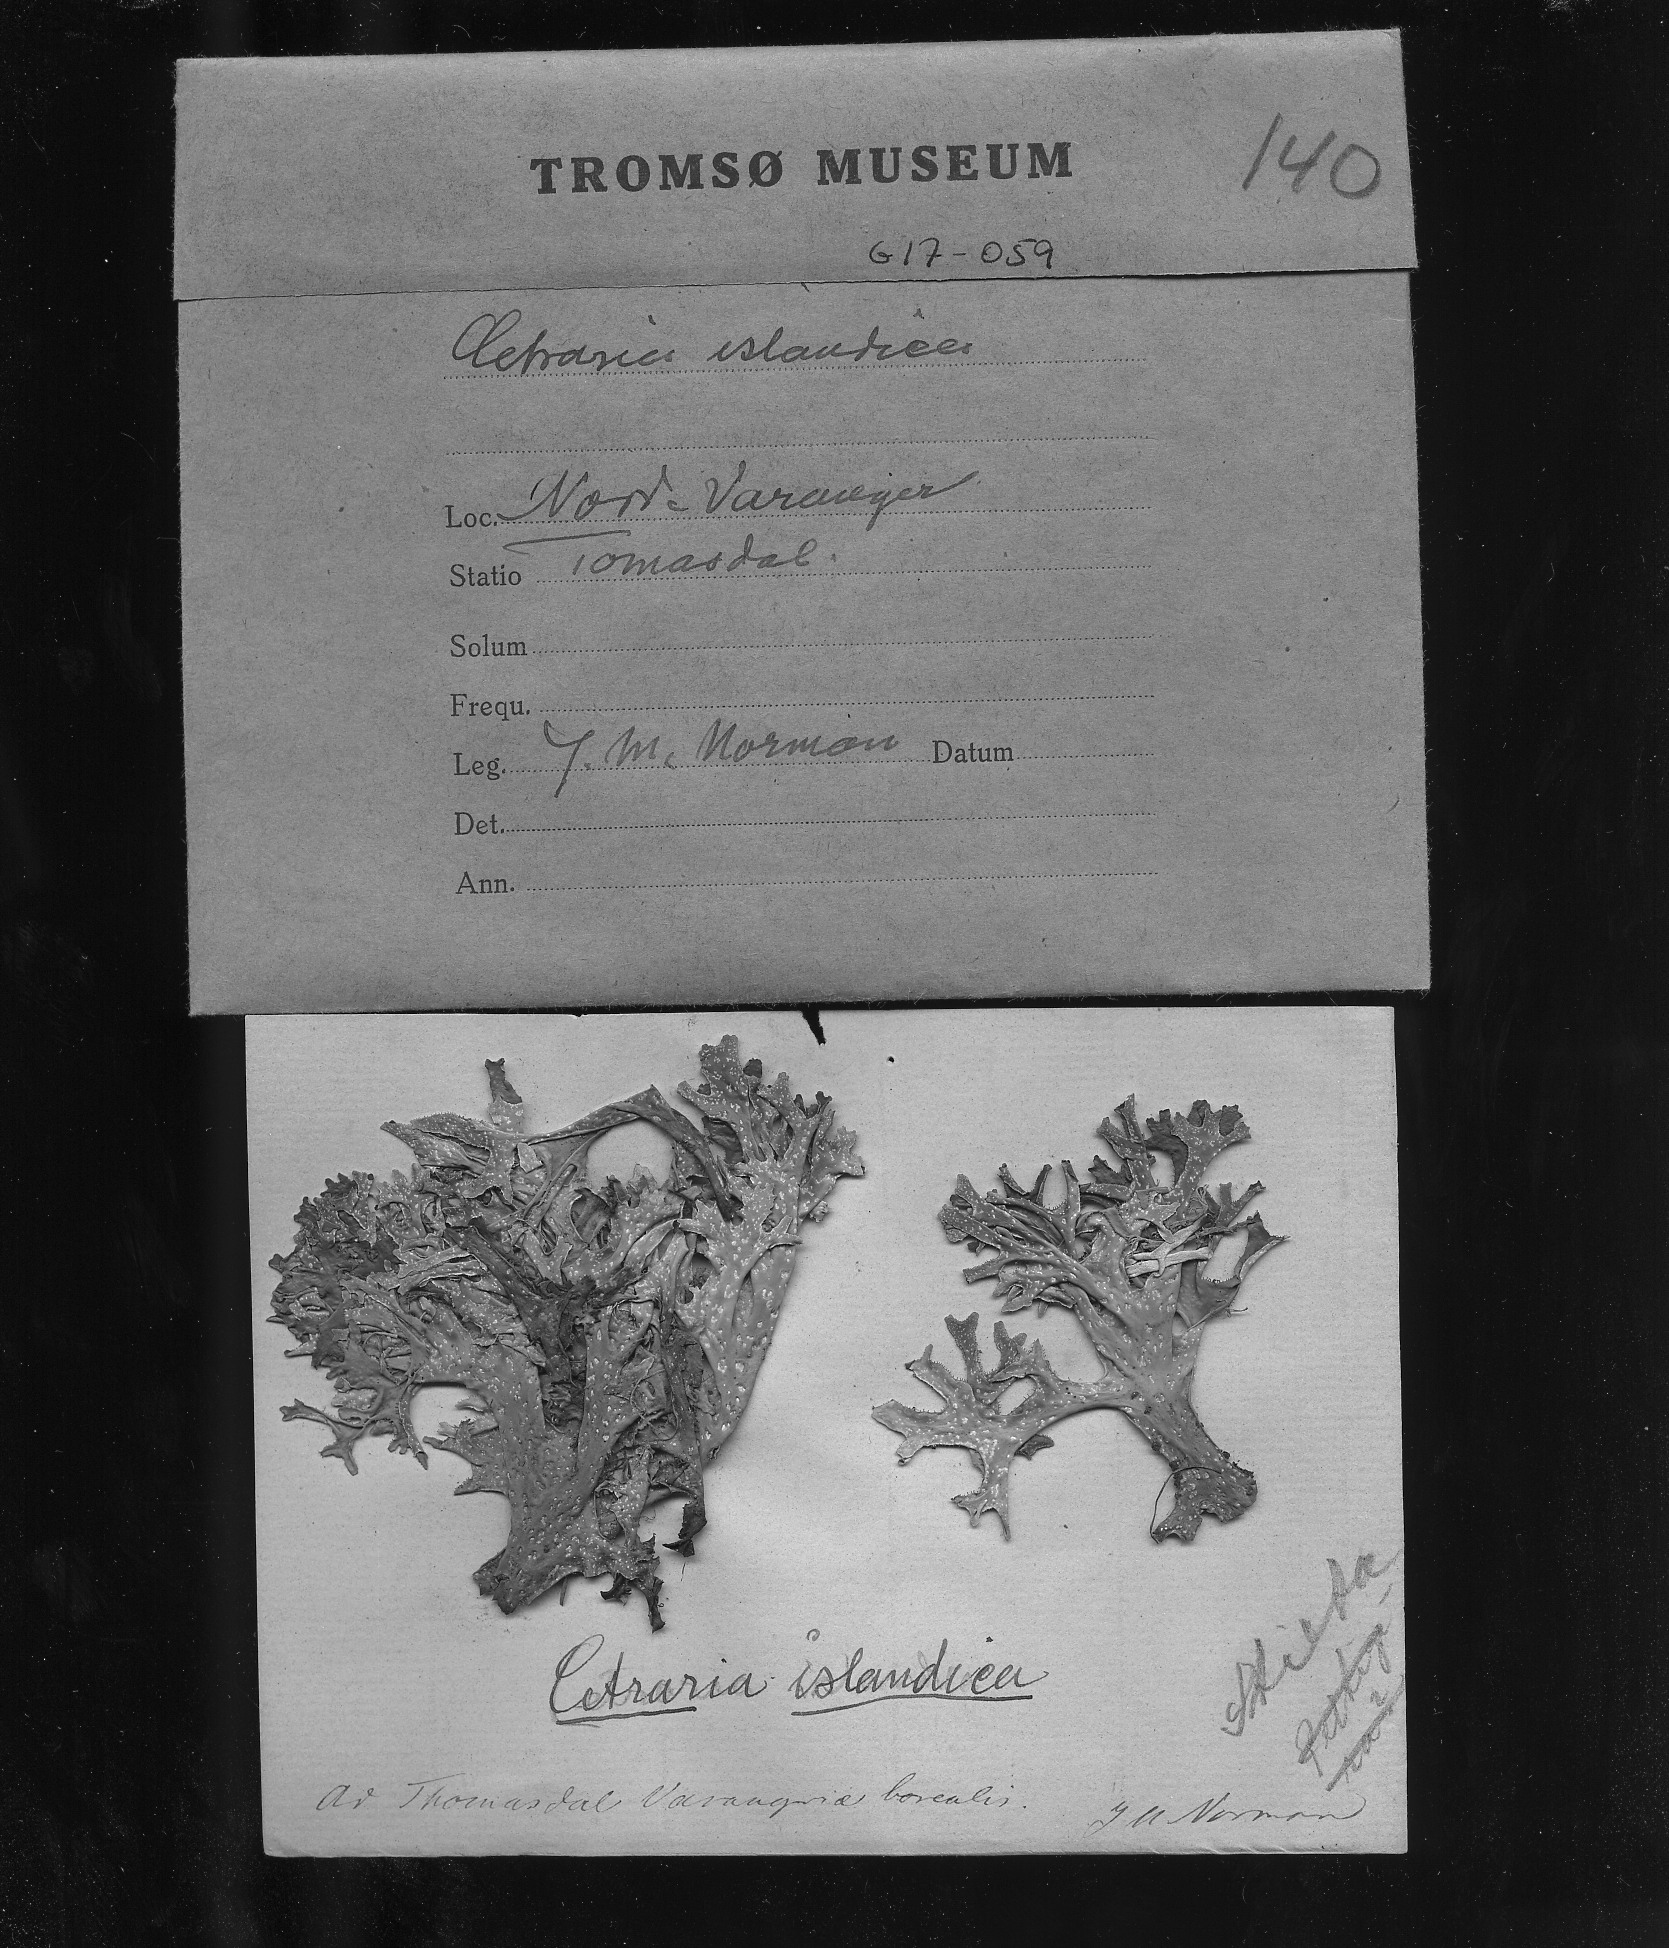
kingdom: Fungi
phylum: Ascomycota
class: Lecanoromycetes
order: Lecanorales
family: Parmeliaceae
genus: Cetraria
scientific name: Cetraria islandica
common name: Iceland lichen
